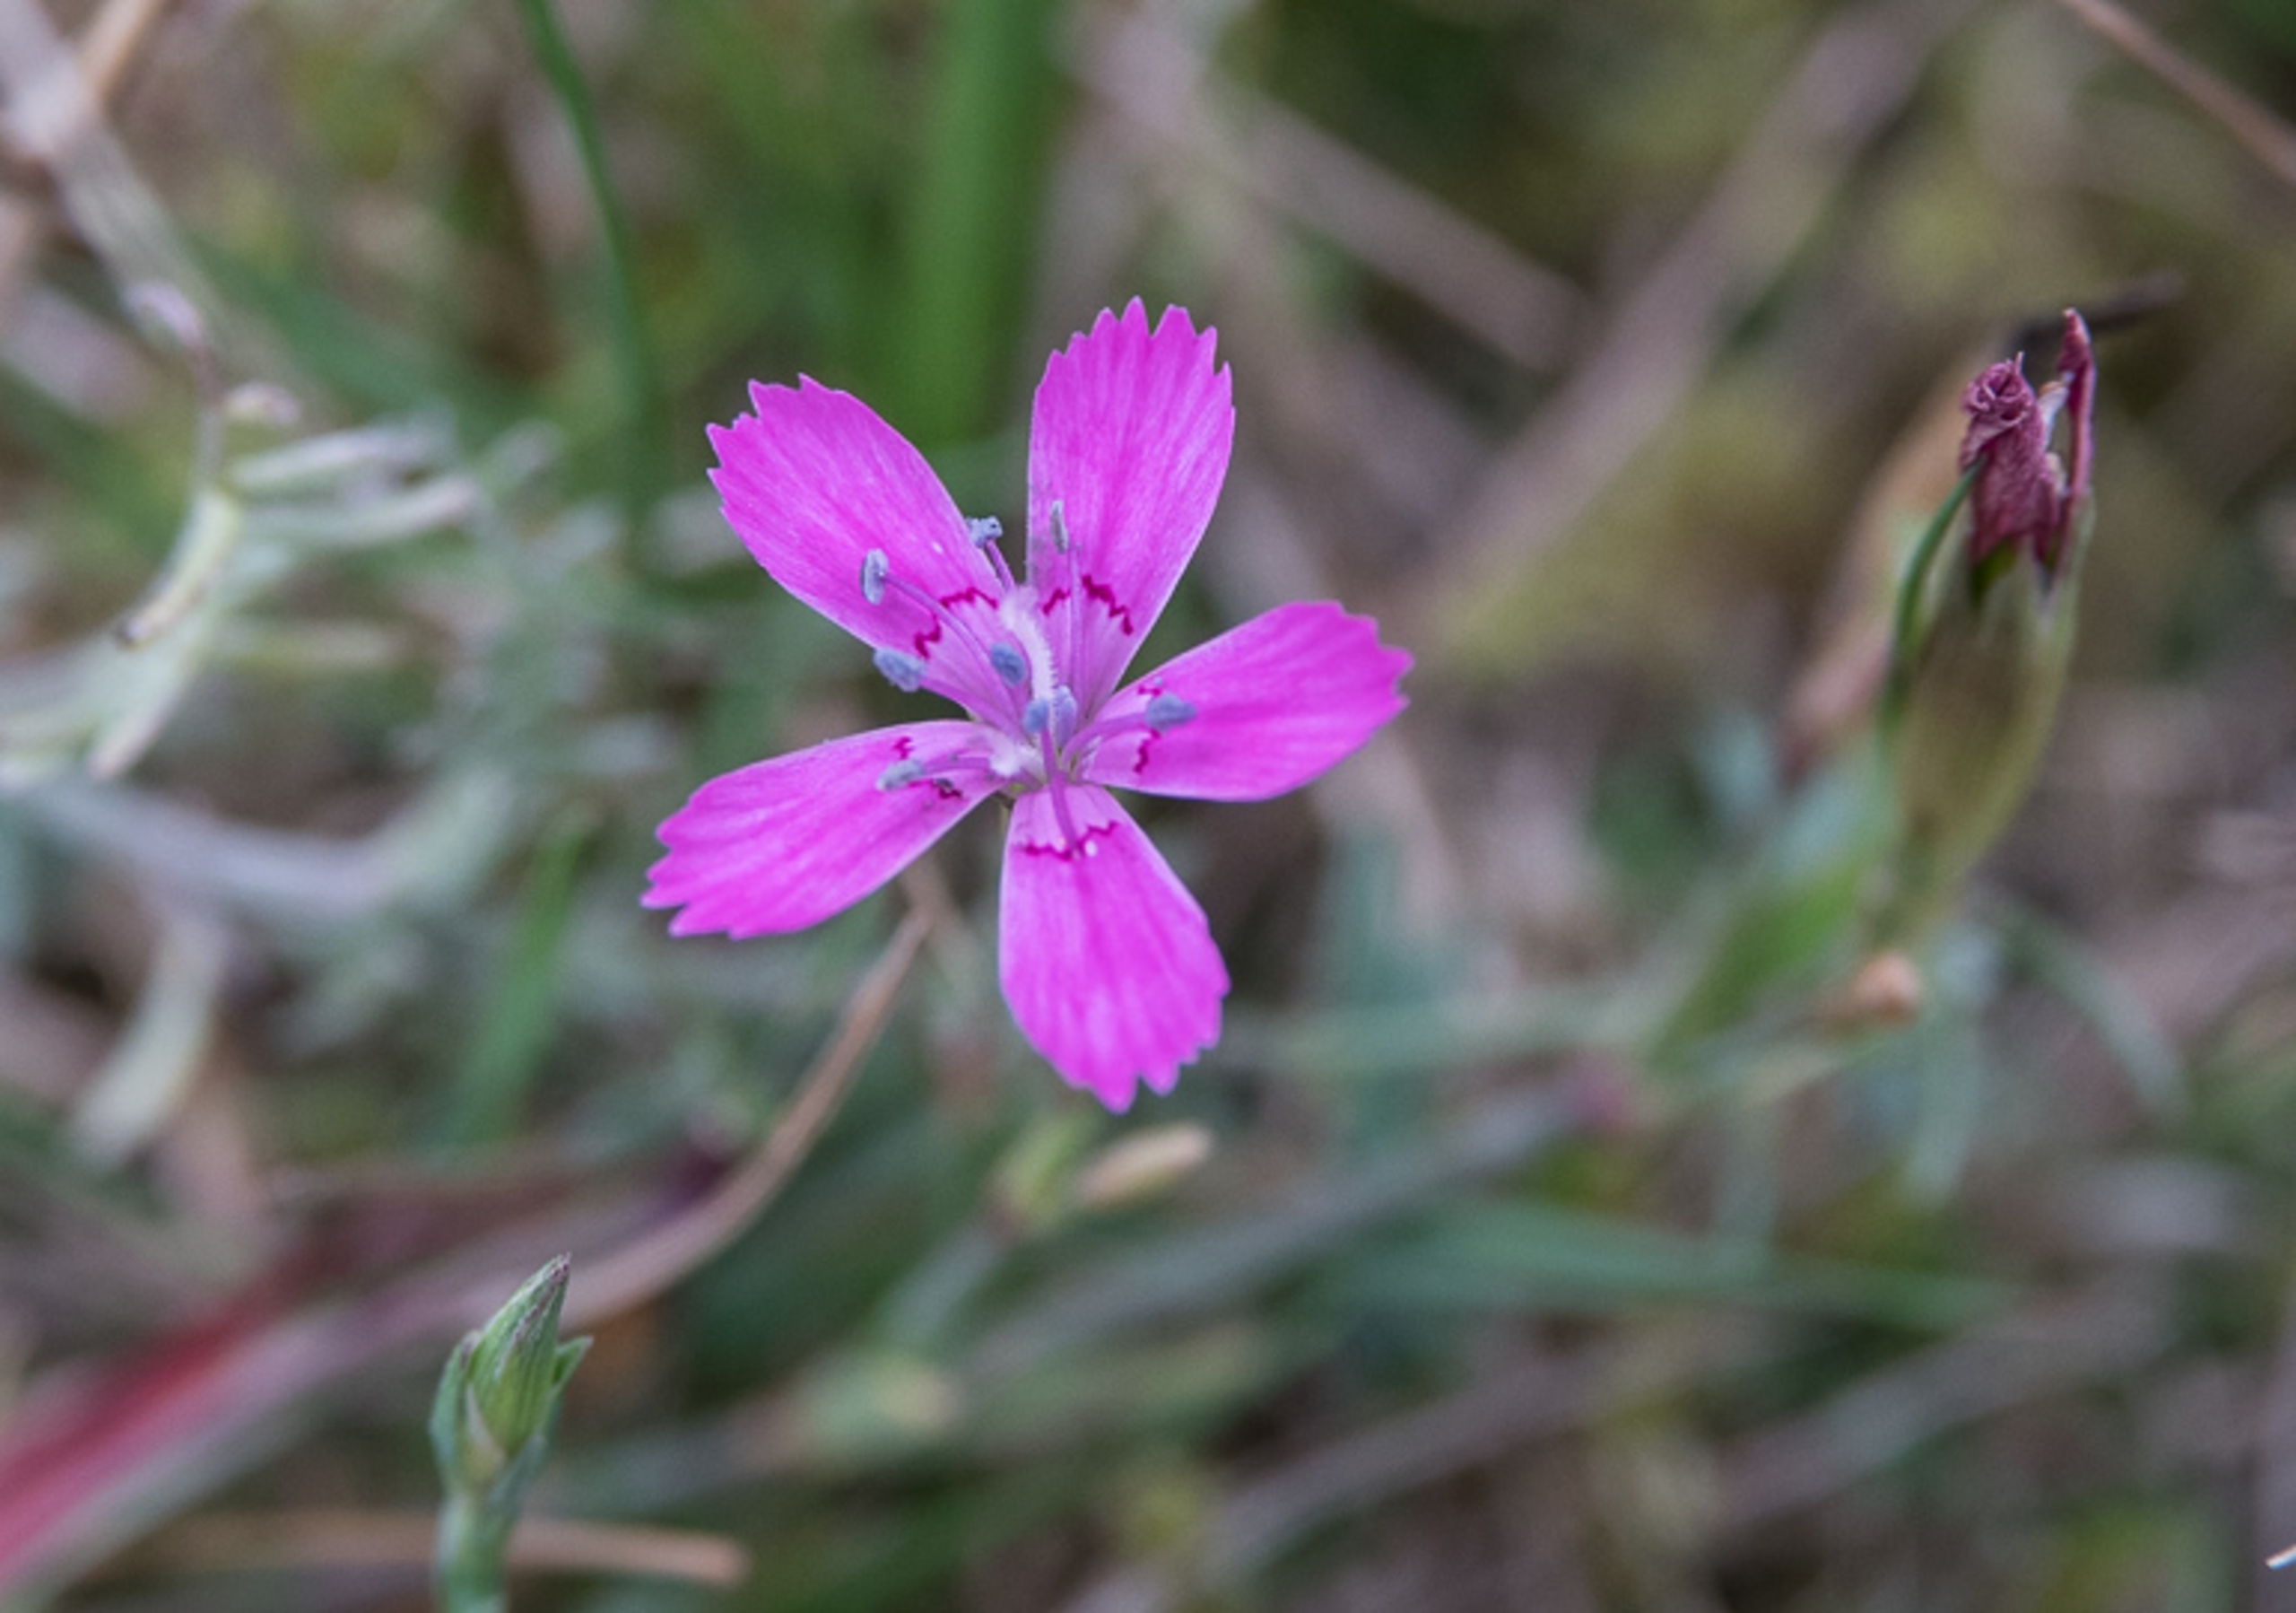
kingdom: Plantae
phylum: Tracheophyta
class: Magnoliopsida
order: Caryophyllales
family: Caryophyllaceae
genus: Dianthus
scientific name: Dianthus deltoides
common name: Bakke-nellike
